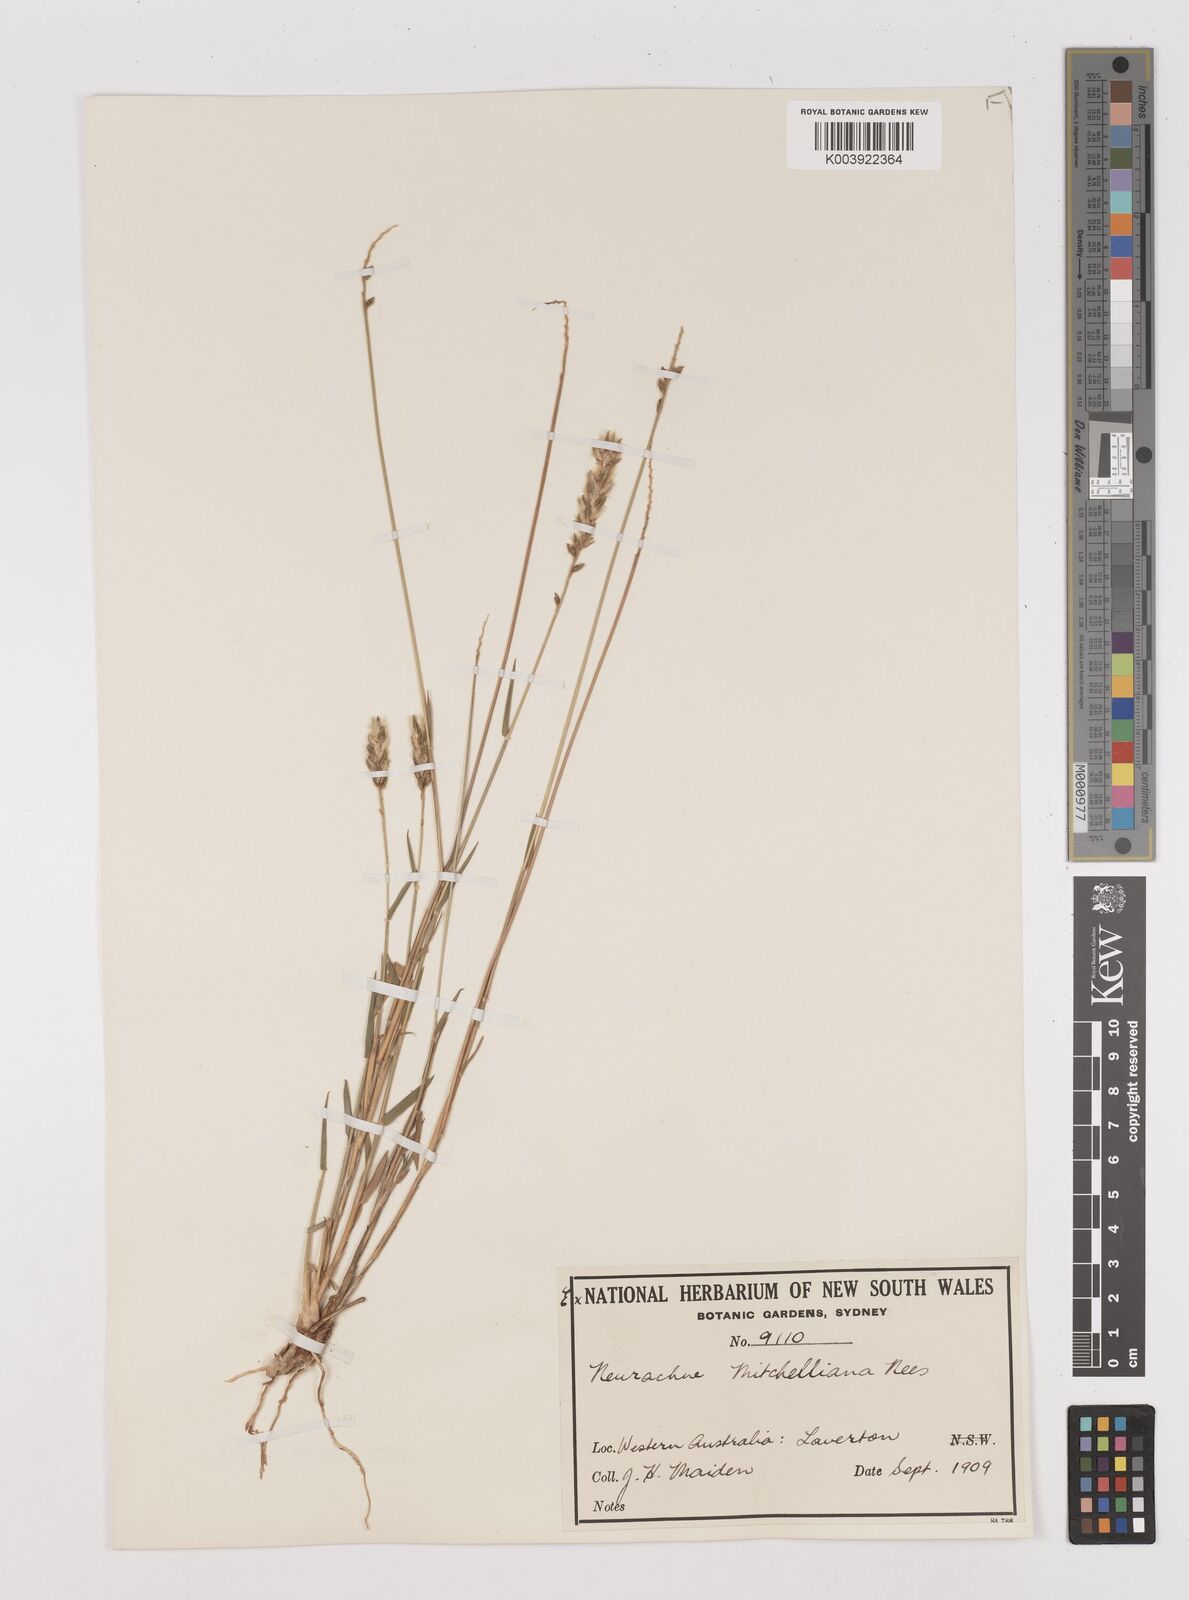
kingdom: Plantae
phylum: Tracheophyta
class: Liliopsida
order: Poales
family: Poaceae
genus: Thyridolepis
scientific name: Thyridolepis mitchelliana
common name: Rock tassel grass
